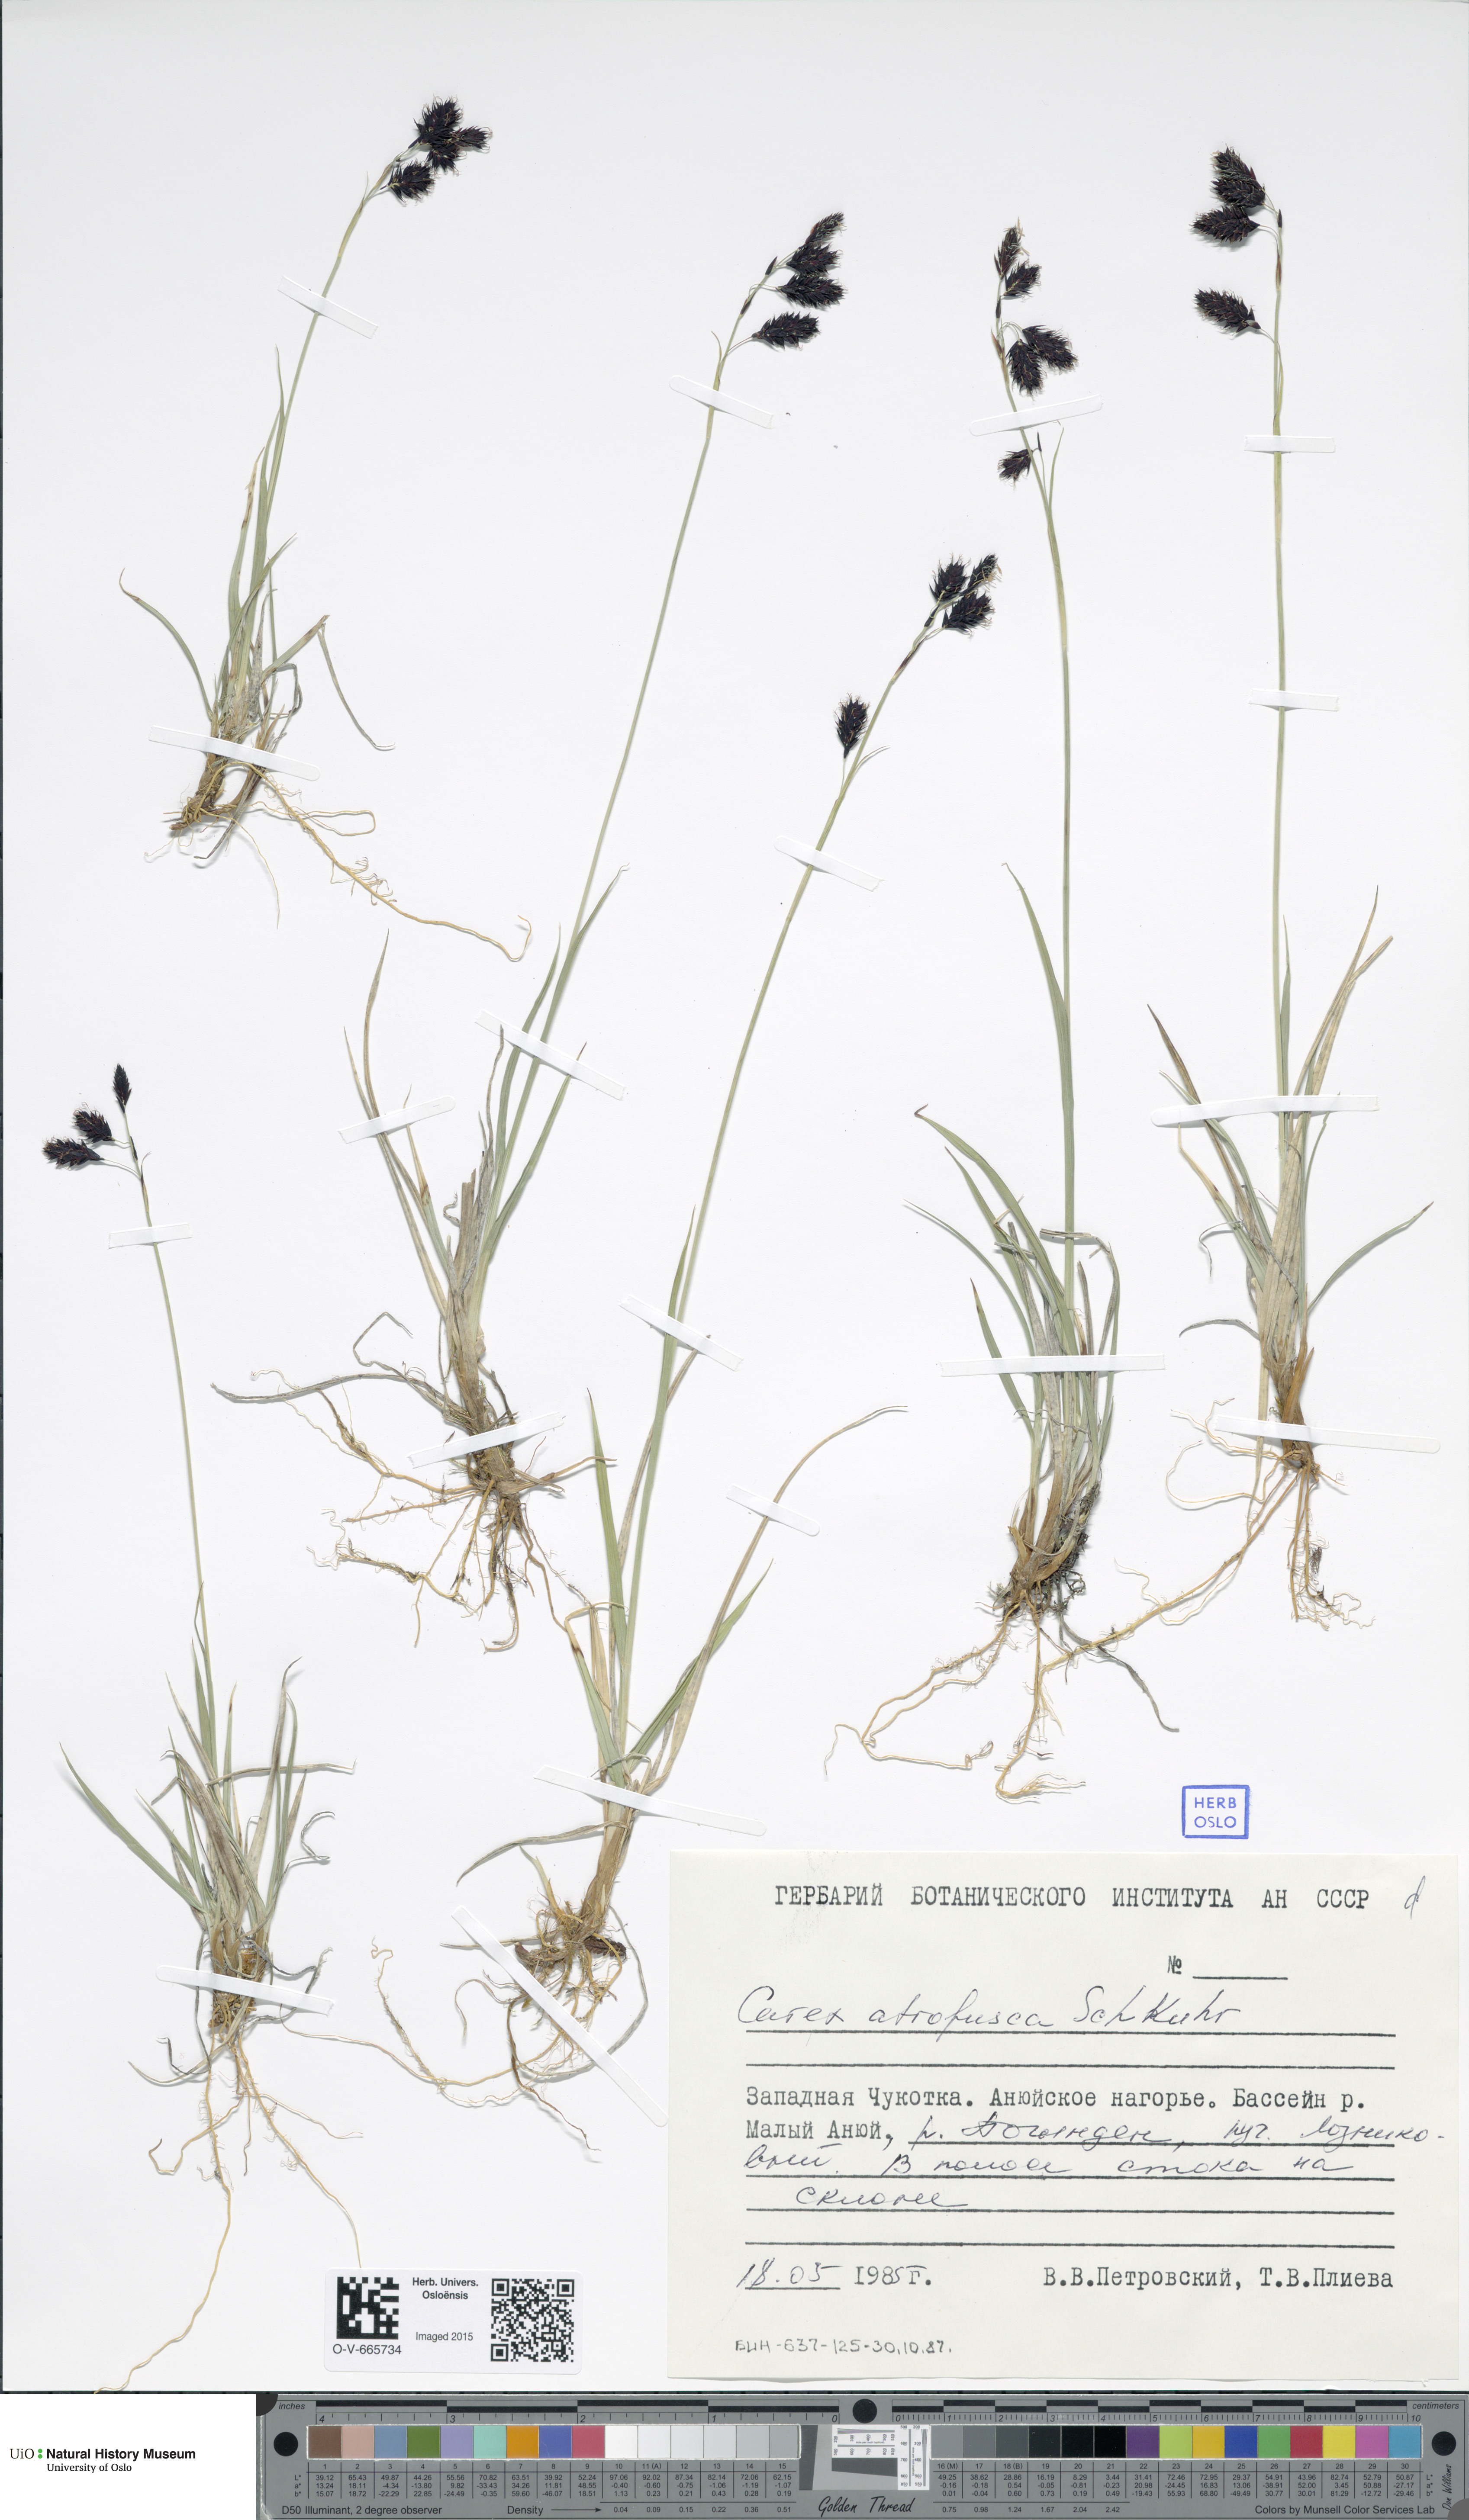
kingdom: Plantae
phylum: Tracheophyta
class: Liliopsida
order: Poales
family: Cyperaceae
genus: Carex
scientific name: Carex atrofusca
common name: Scorched alpine-sedge
